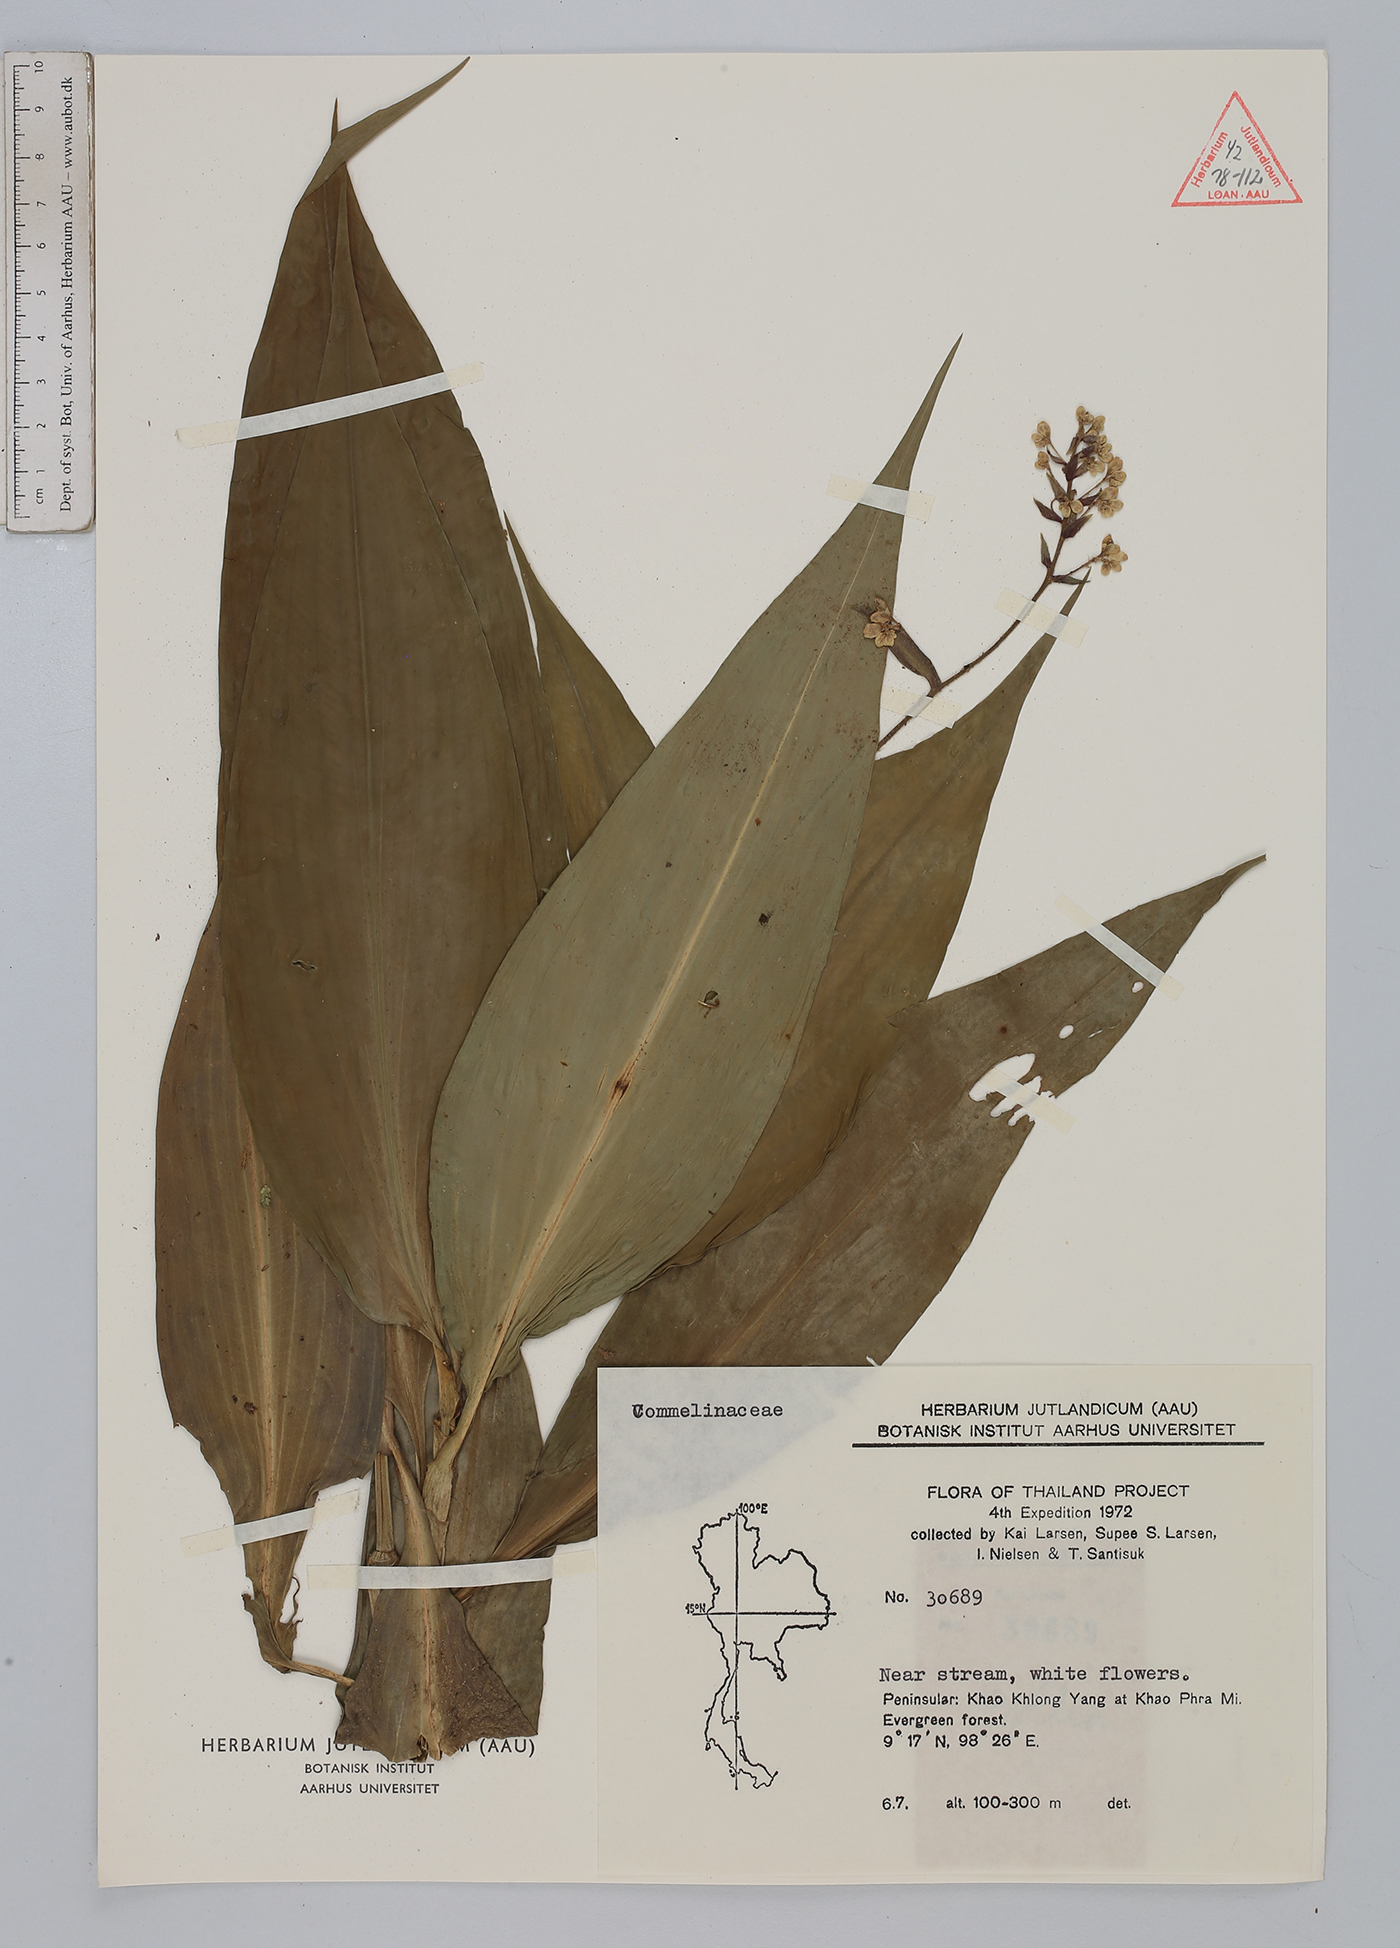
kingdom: Plantae
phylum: Tracheophyta
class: Liliopsida
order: Commelinales
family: Commelinaceae
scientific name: Commelinaceae
